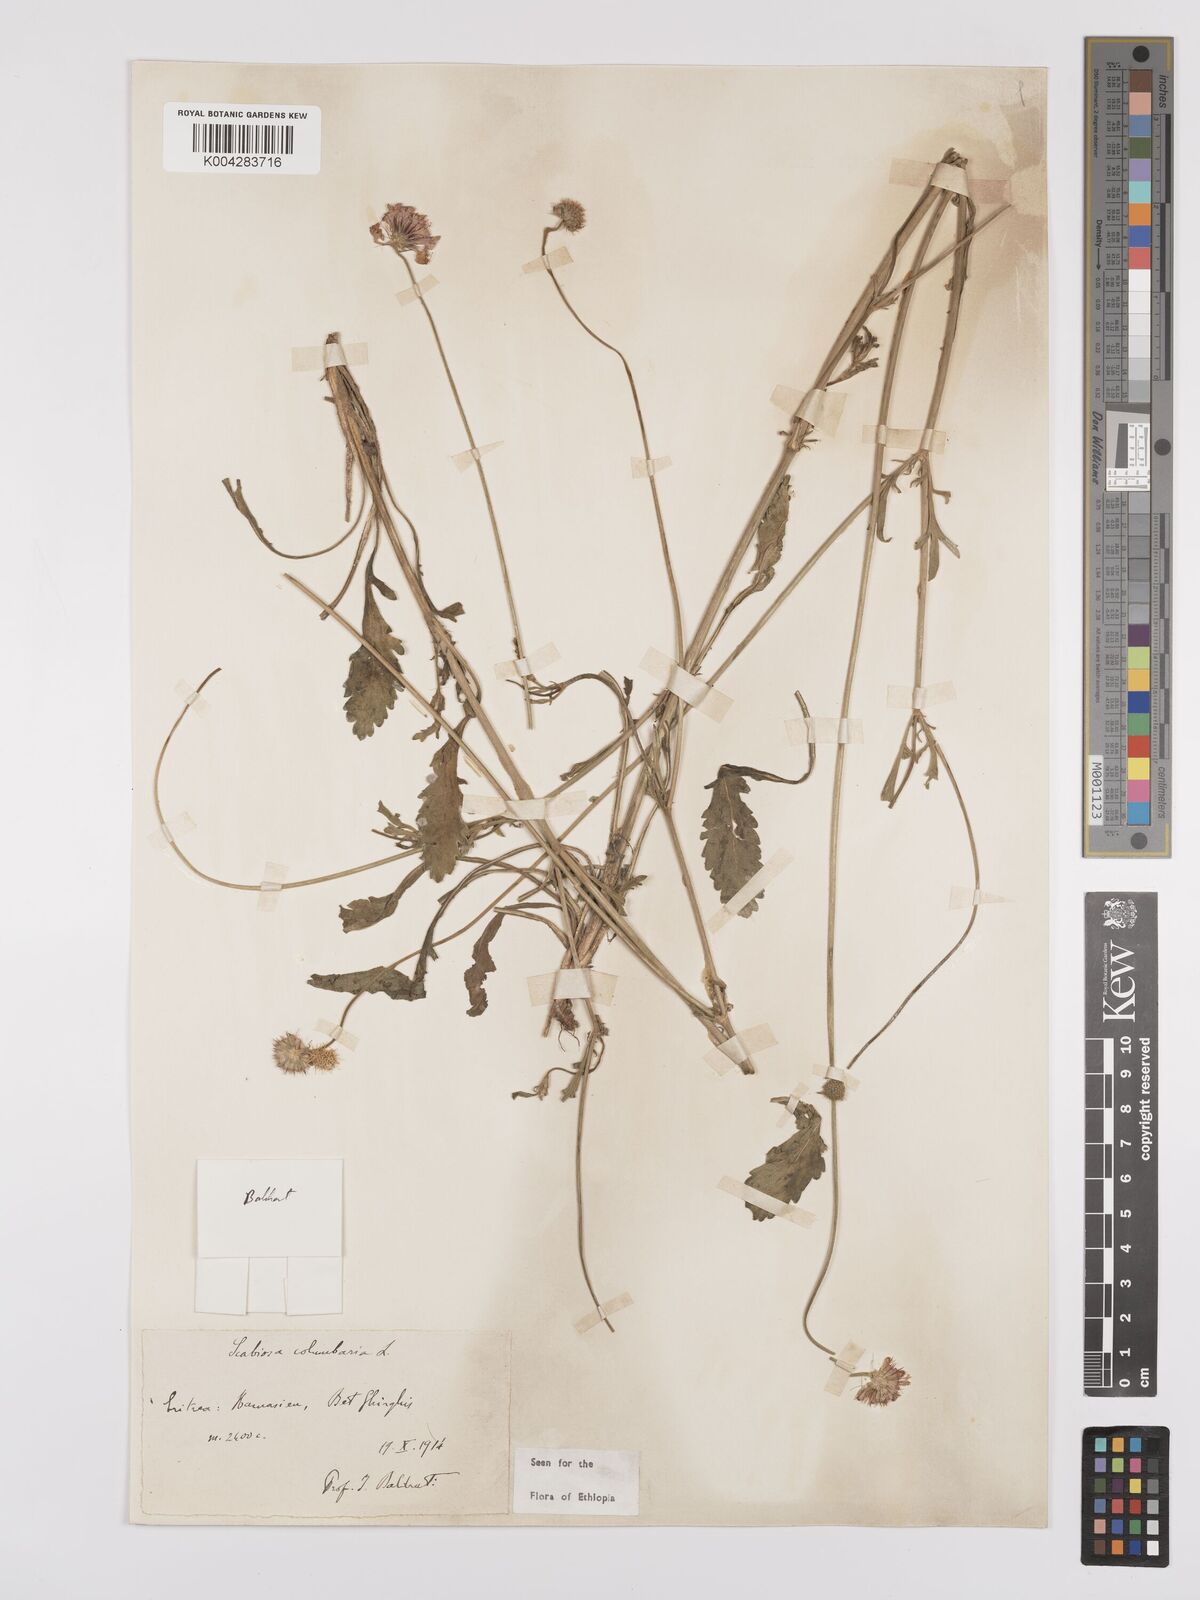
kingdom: Plantae
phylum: Tracheophyta
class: Magnoliopsida
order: Dipsacales
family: Caprifoliaceae
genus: Scabiosa
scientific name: Scabiosa columbaria
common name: Small scabious
